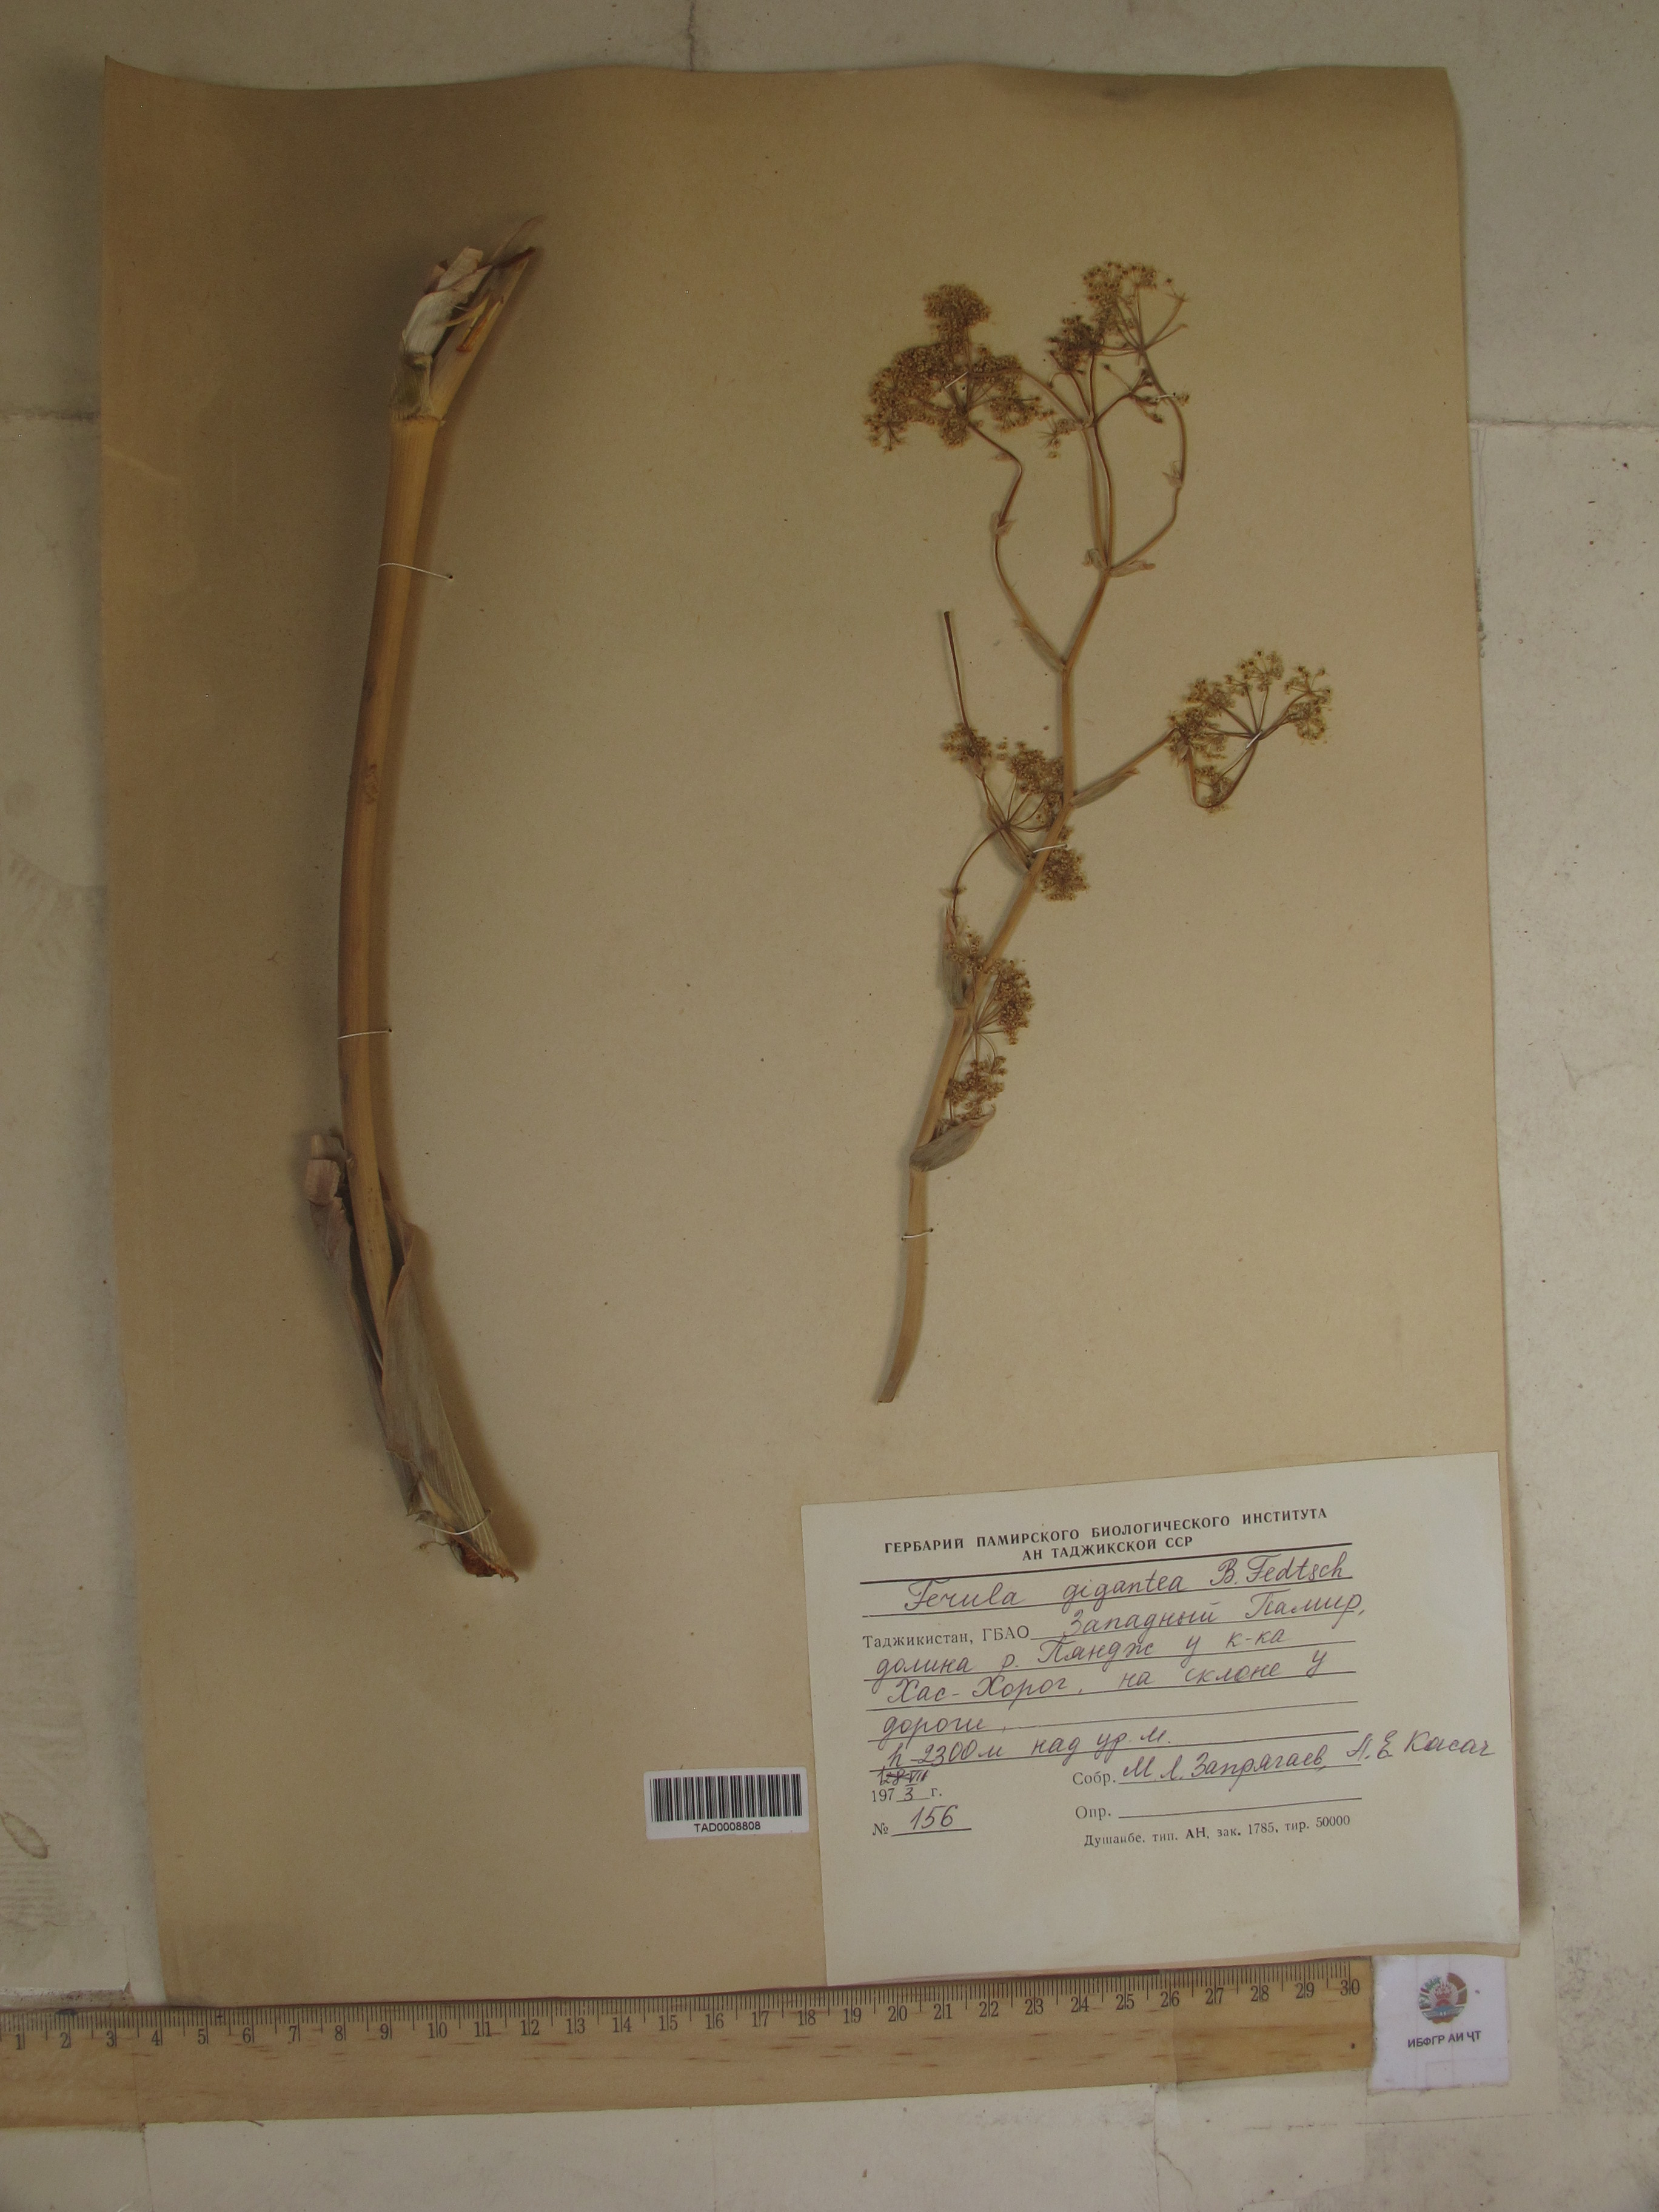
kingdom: Plantae
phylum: Tracheophyta
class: Magnoliopsida
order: Apiales
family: Apiaceae
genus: Ferula
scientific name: Ferula gigantea
